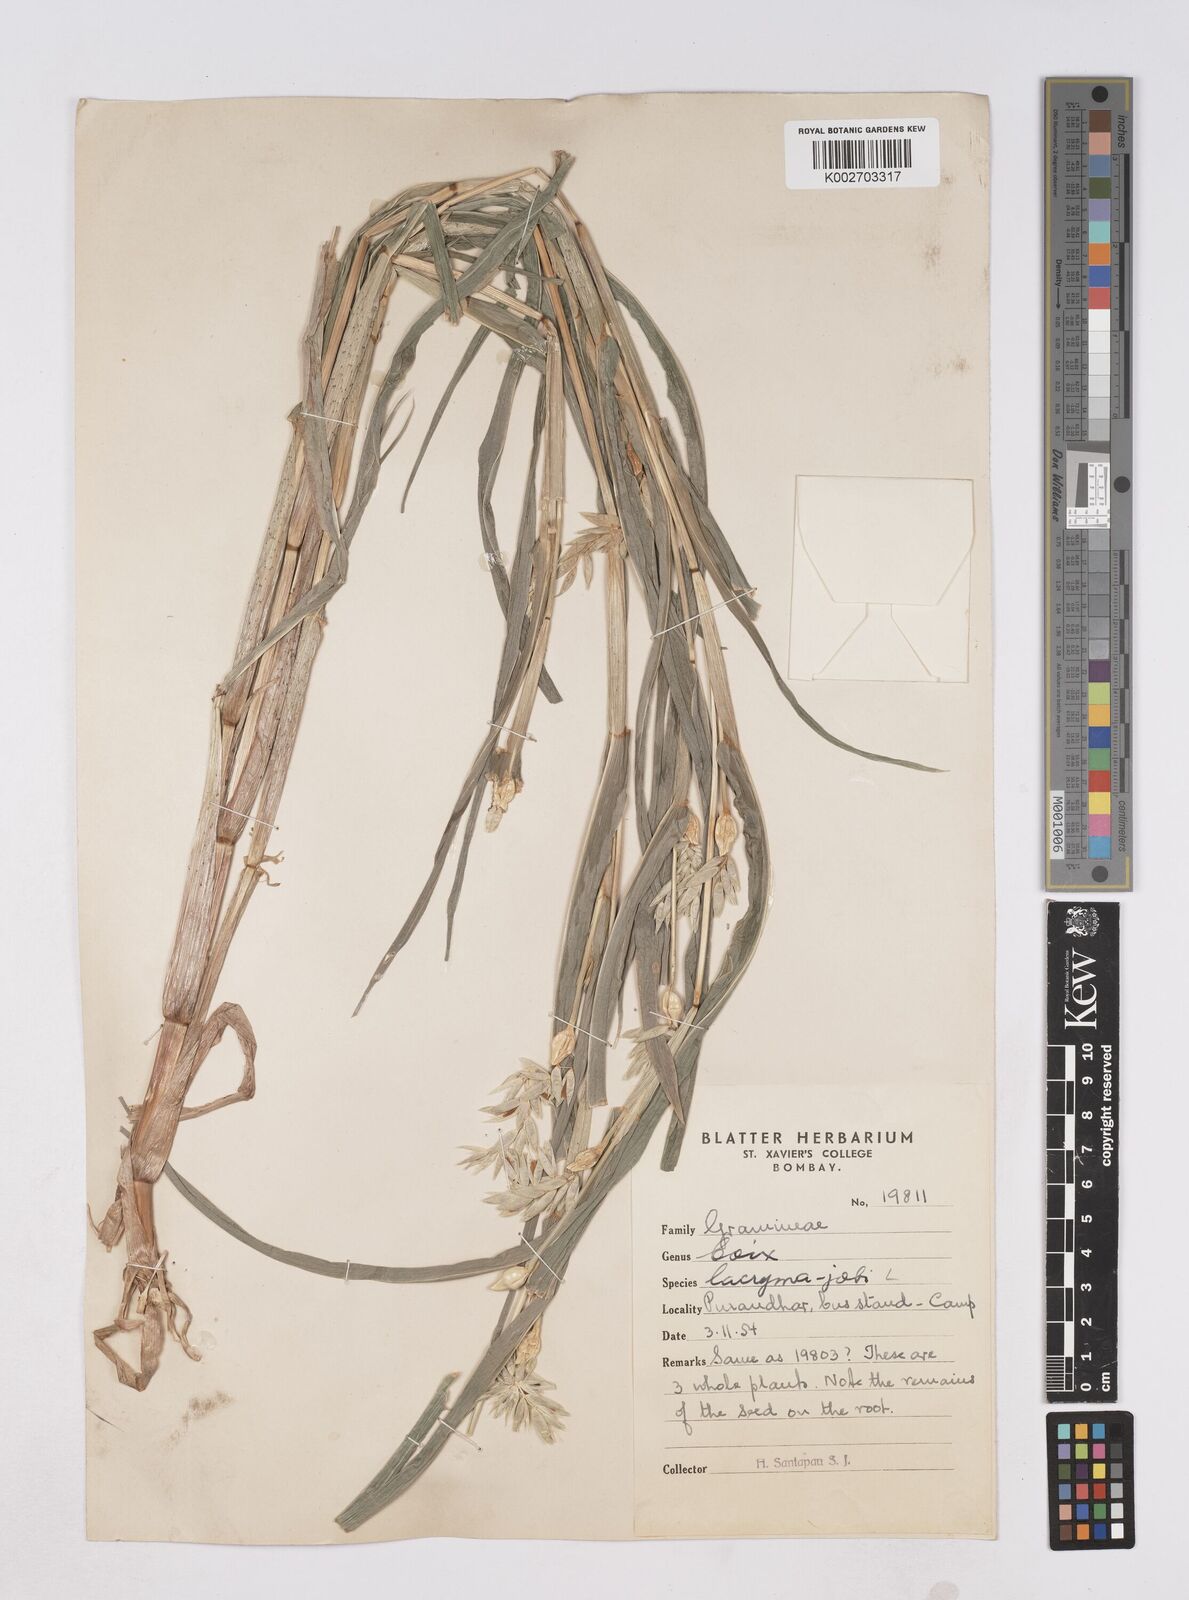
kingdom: Plantae
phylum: Tracheophyta
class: Liliopsida
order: Poales
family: Poaceae
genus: Coix
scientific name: Coix aquatica
